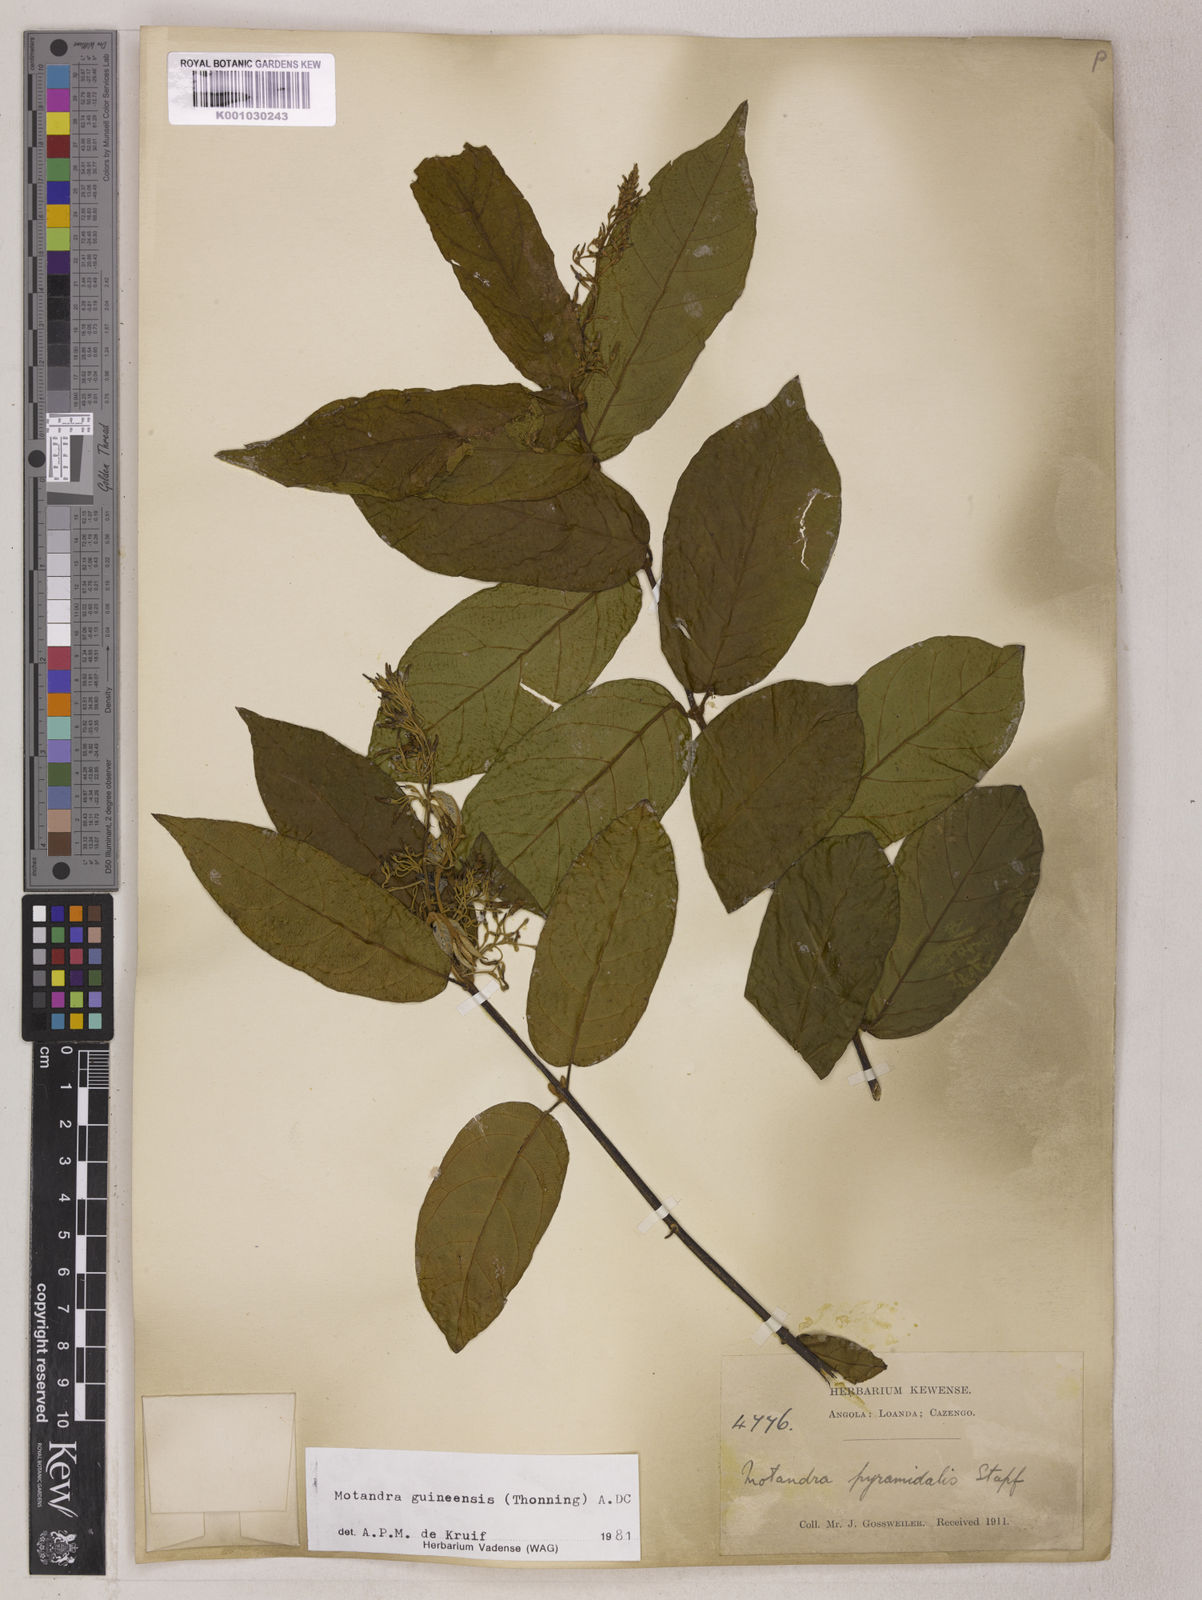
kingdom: Plantae
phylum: Tracheophyta
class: Magnoliopsida
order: Gentianales
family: Apocynaceae
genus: Motandra
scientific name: Motandra paniculata
